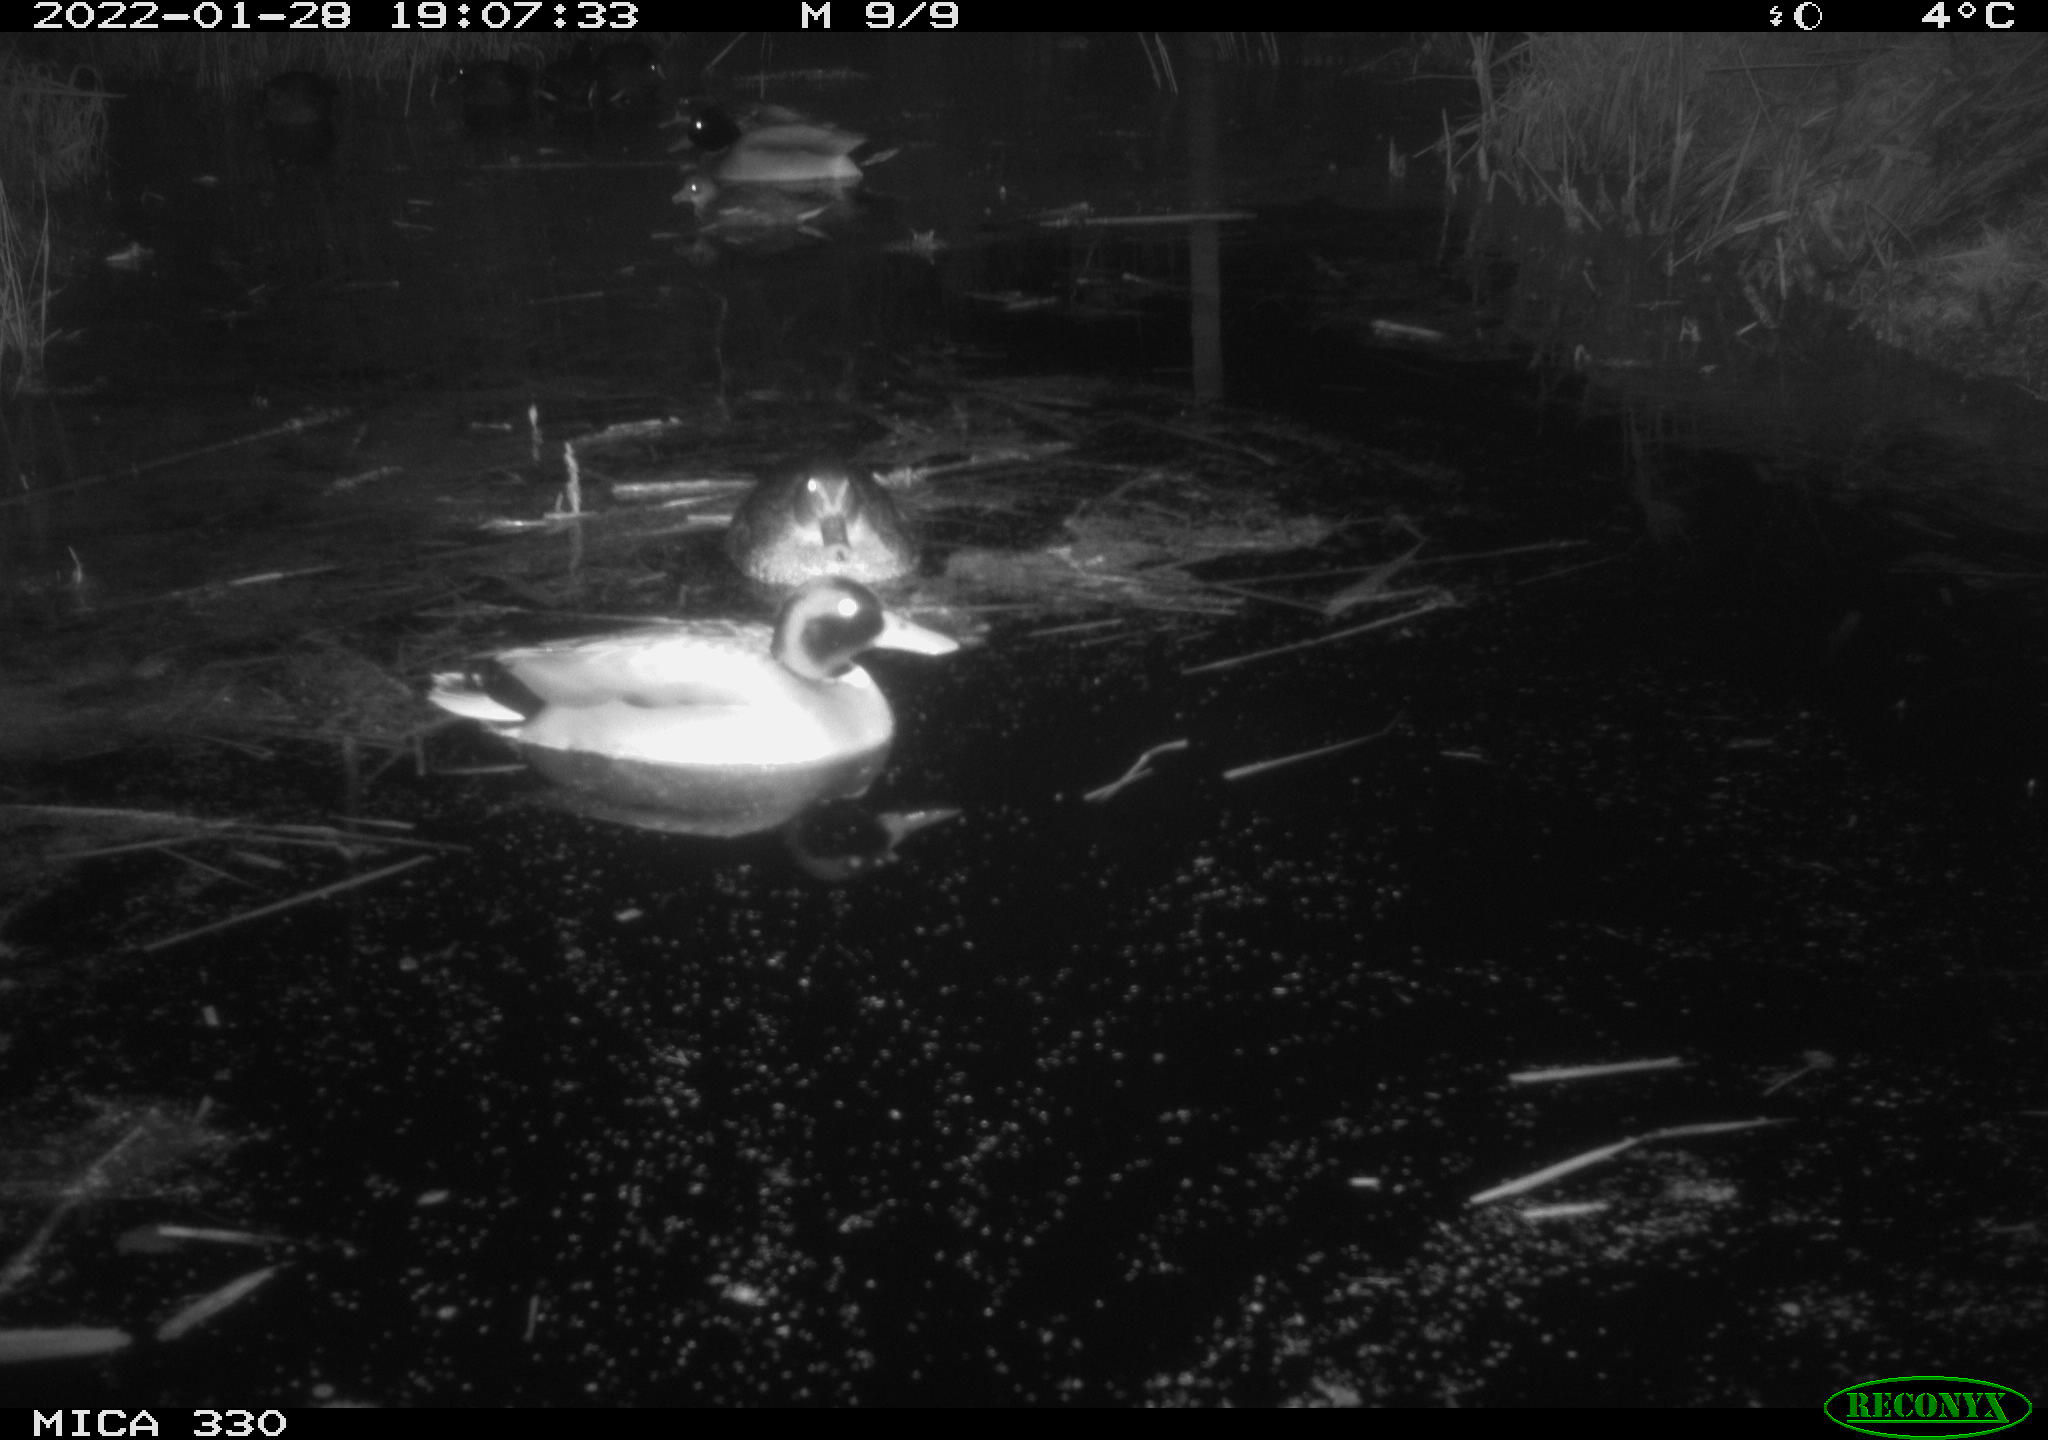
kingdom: Animalia
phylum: Chordata
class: Aves
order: Anseriformes
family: Anatidae
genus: Anas
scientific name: Anas platyrhynchos
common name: Mallard
